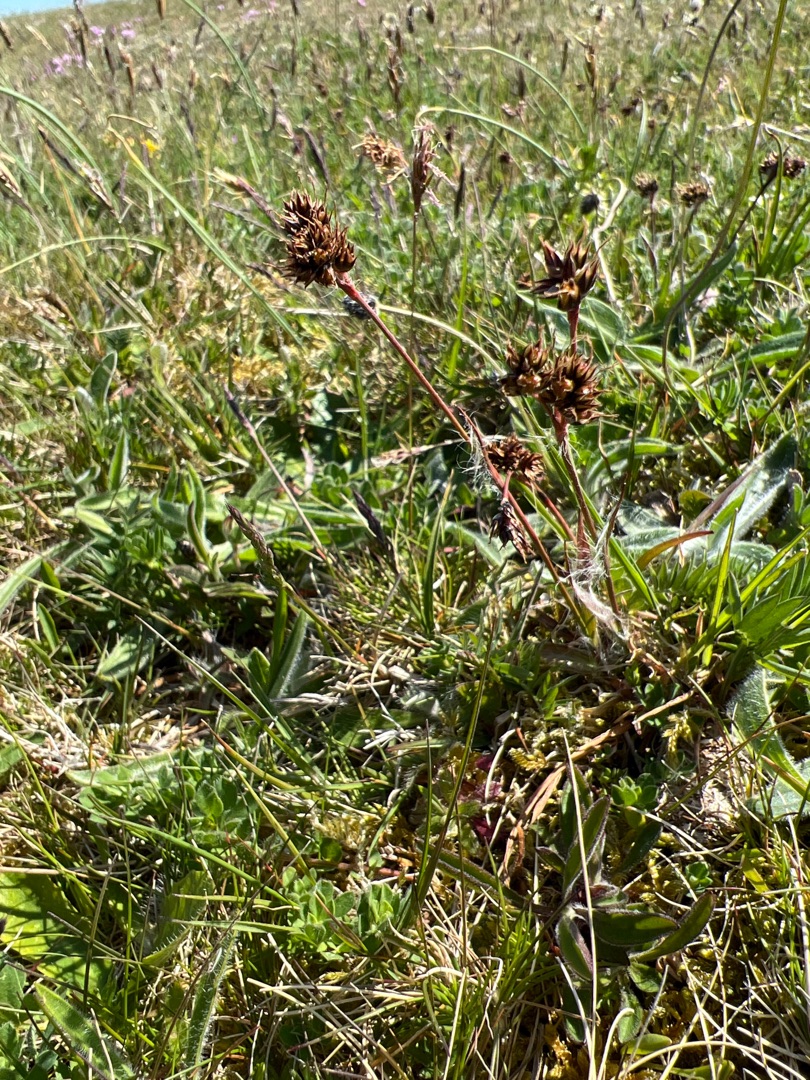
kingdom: Plantae
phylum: Tracheophyta
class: Liliopsida
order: Poales
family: Juncaceae
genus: Luzula
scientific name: Luzula campestris
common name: Mark-frytle
